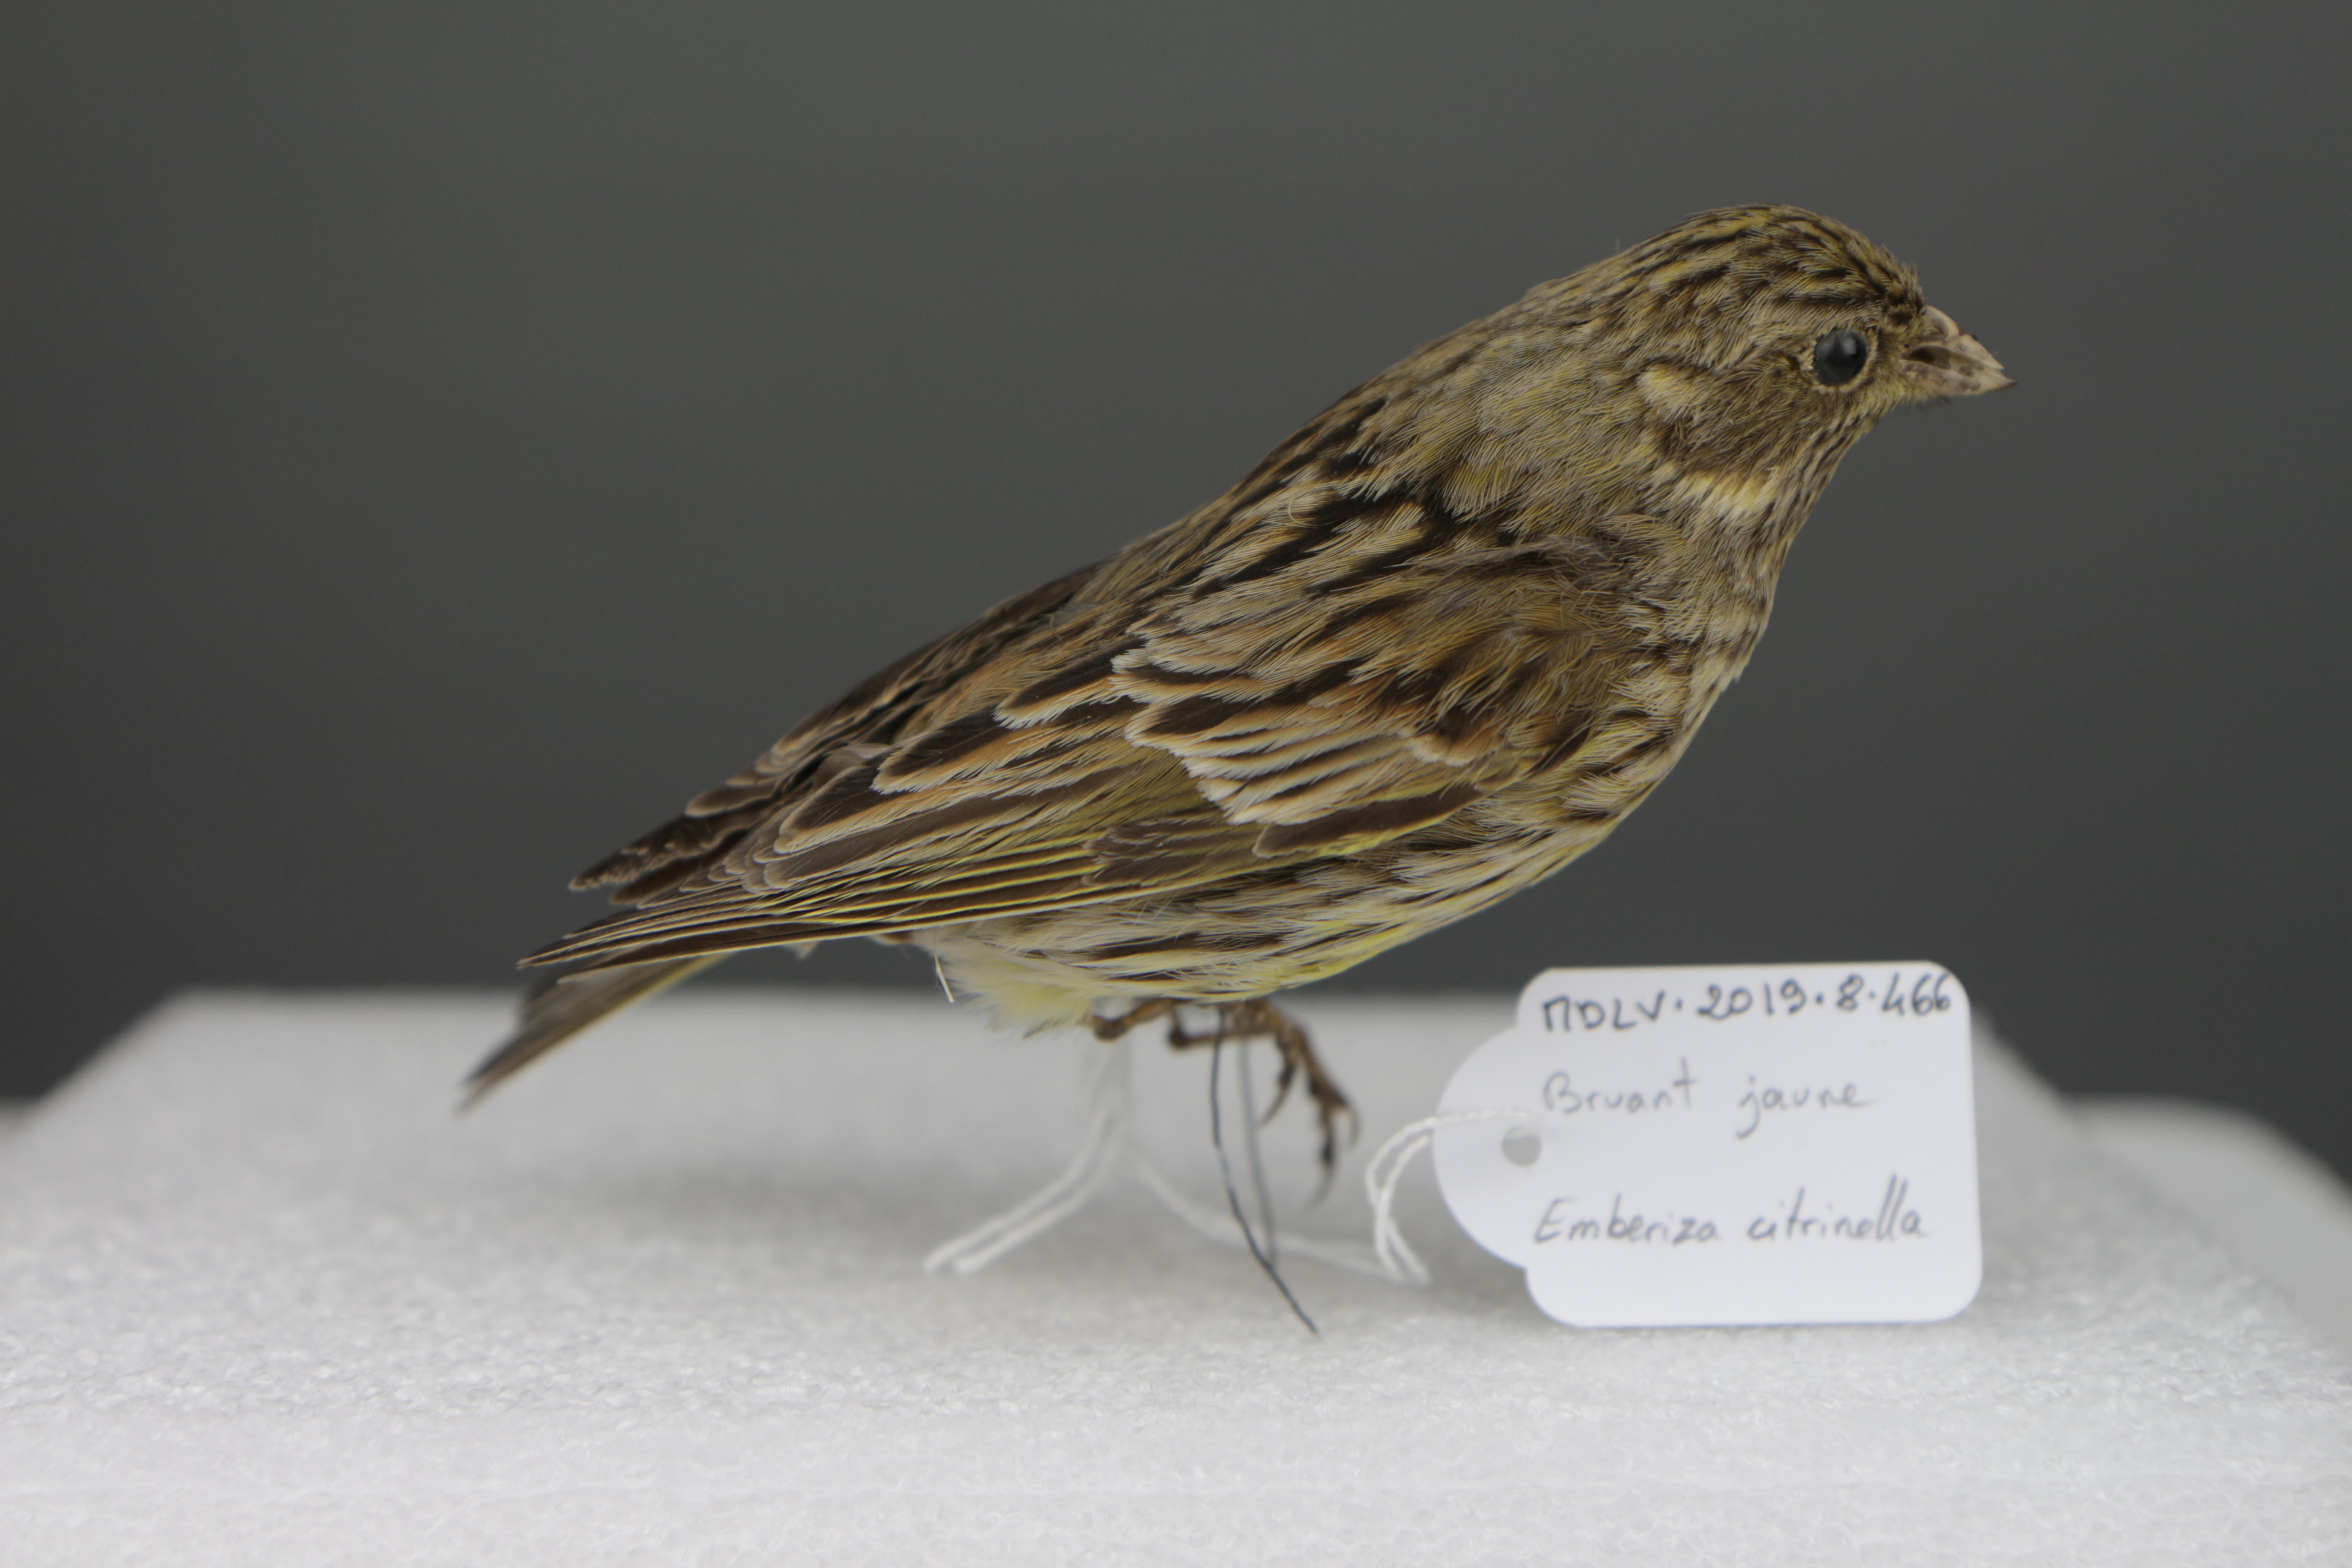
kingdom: Animalia
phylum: Chordata
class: Aves
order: Passeriformes
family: Emberizidae
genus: Emberiza
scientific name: Emberiza citrinella
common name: Yellowhammer
